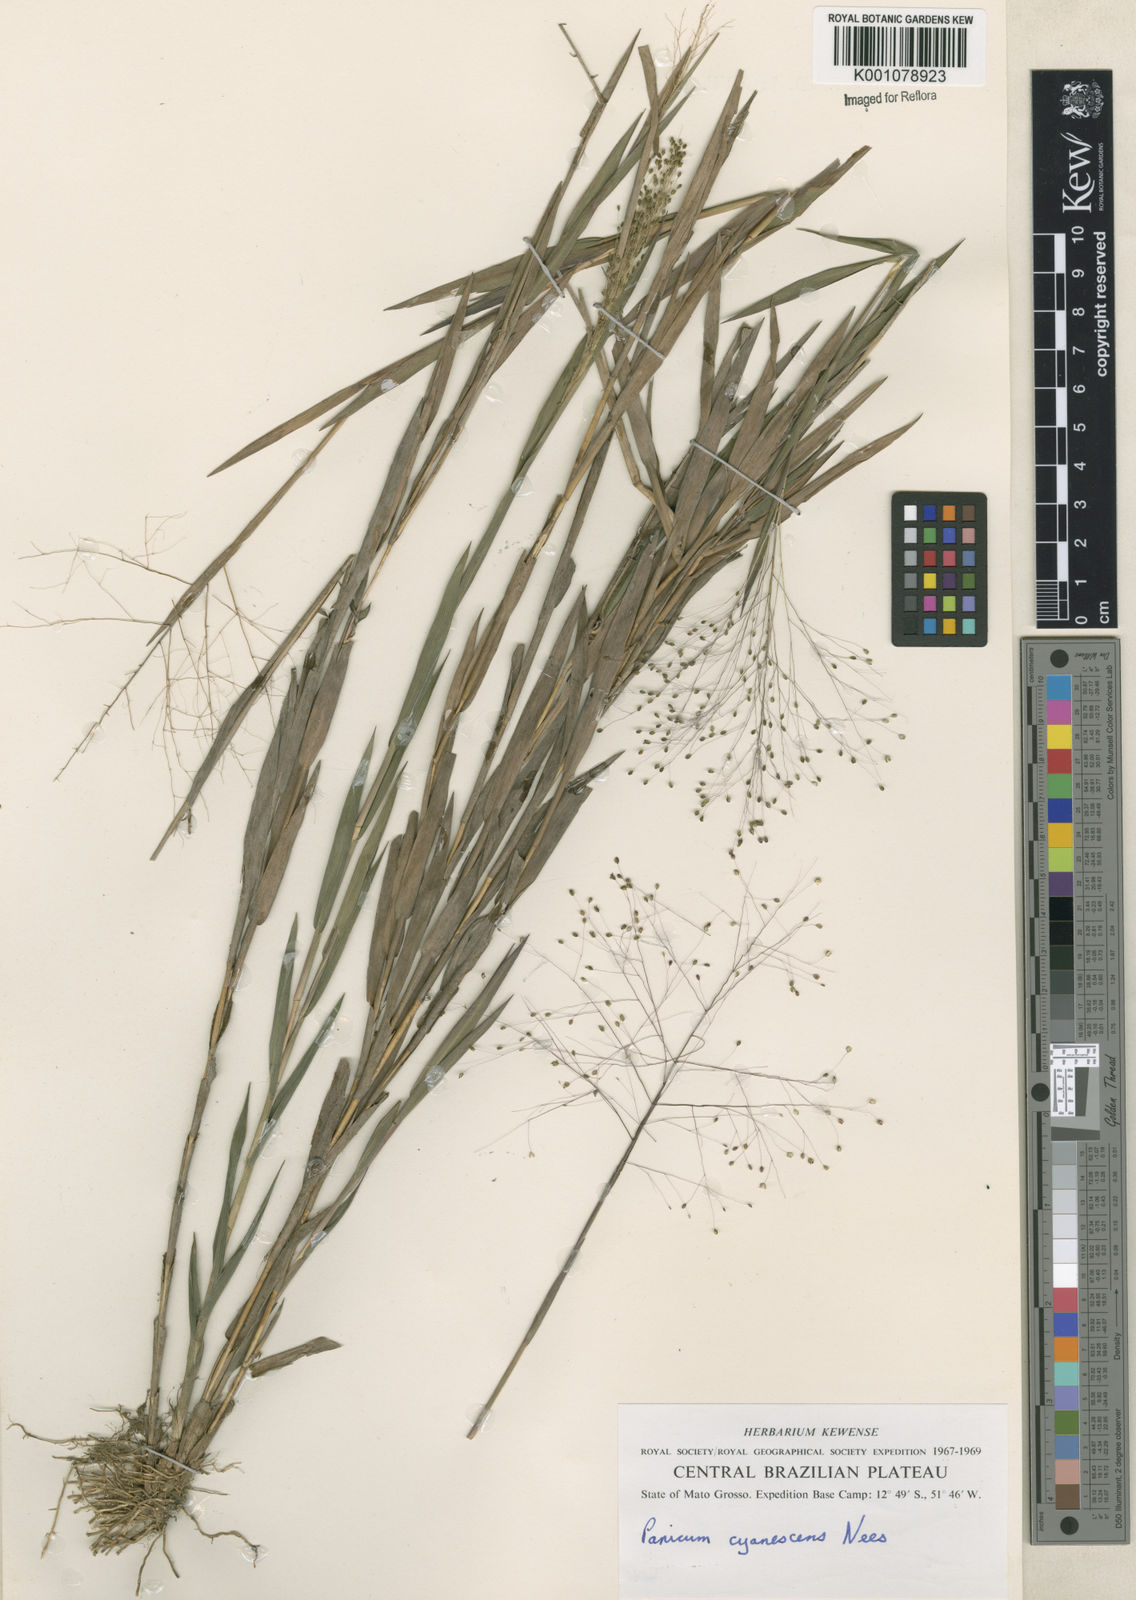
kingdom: Plantae
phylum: Tracheophyta
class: Liliopsida
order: Poales
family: Poaceae
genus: Trichanthecium
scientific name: Trichanthecium cyanescens
